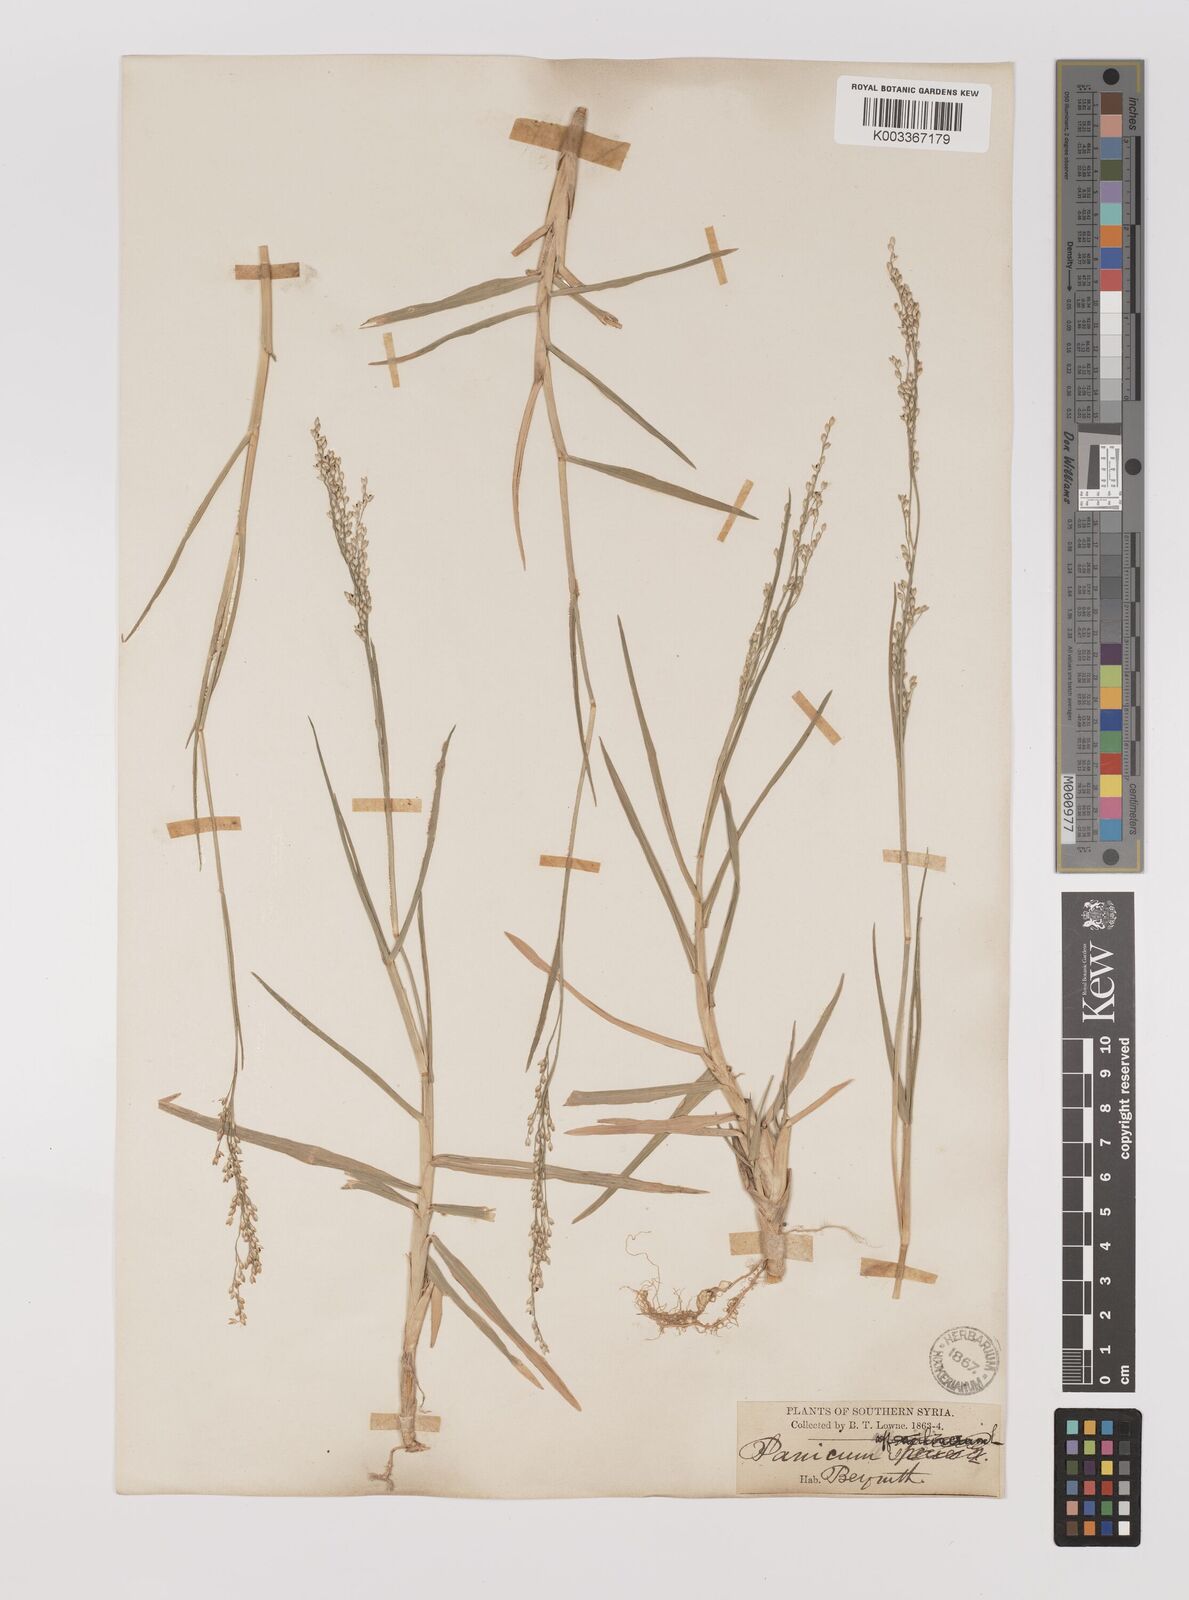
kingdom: Plantae
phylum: Tracheophyta
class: Liliopsida
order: Poales
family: Poaceae
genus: Panicum
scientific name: Panicum repens
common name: Torpedo grass
